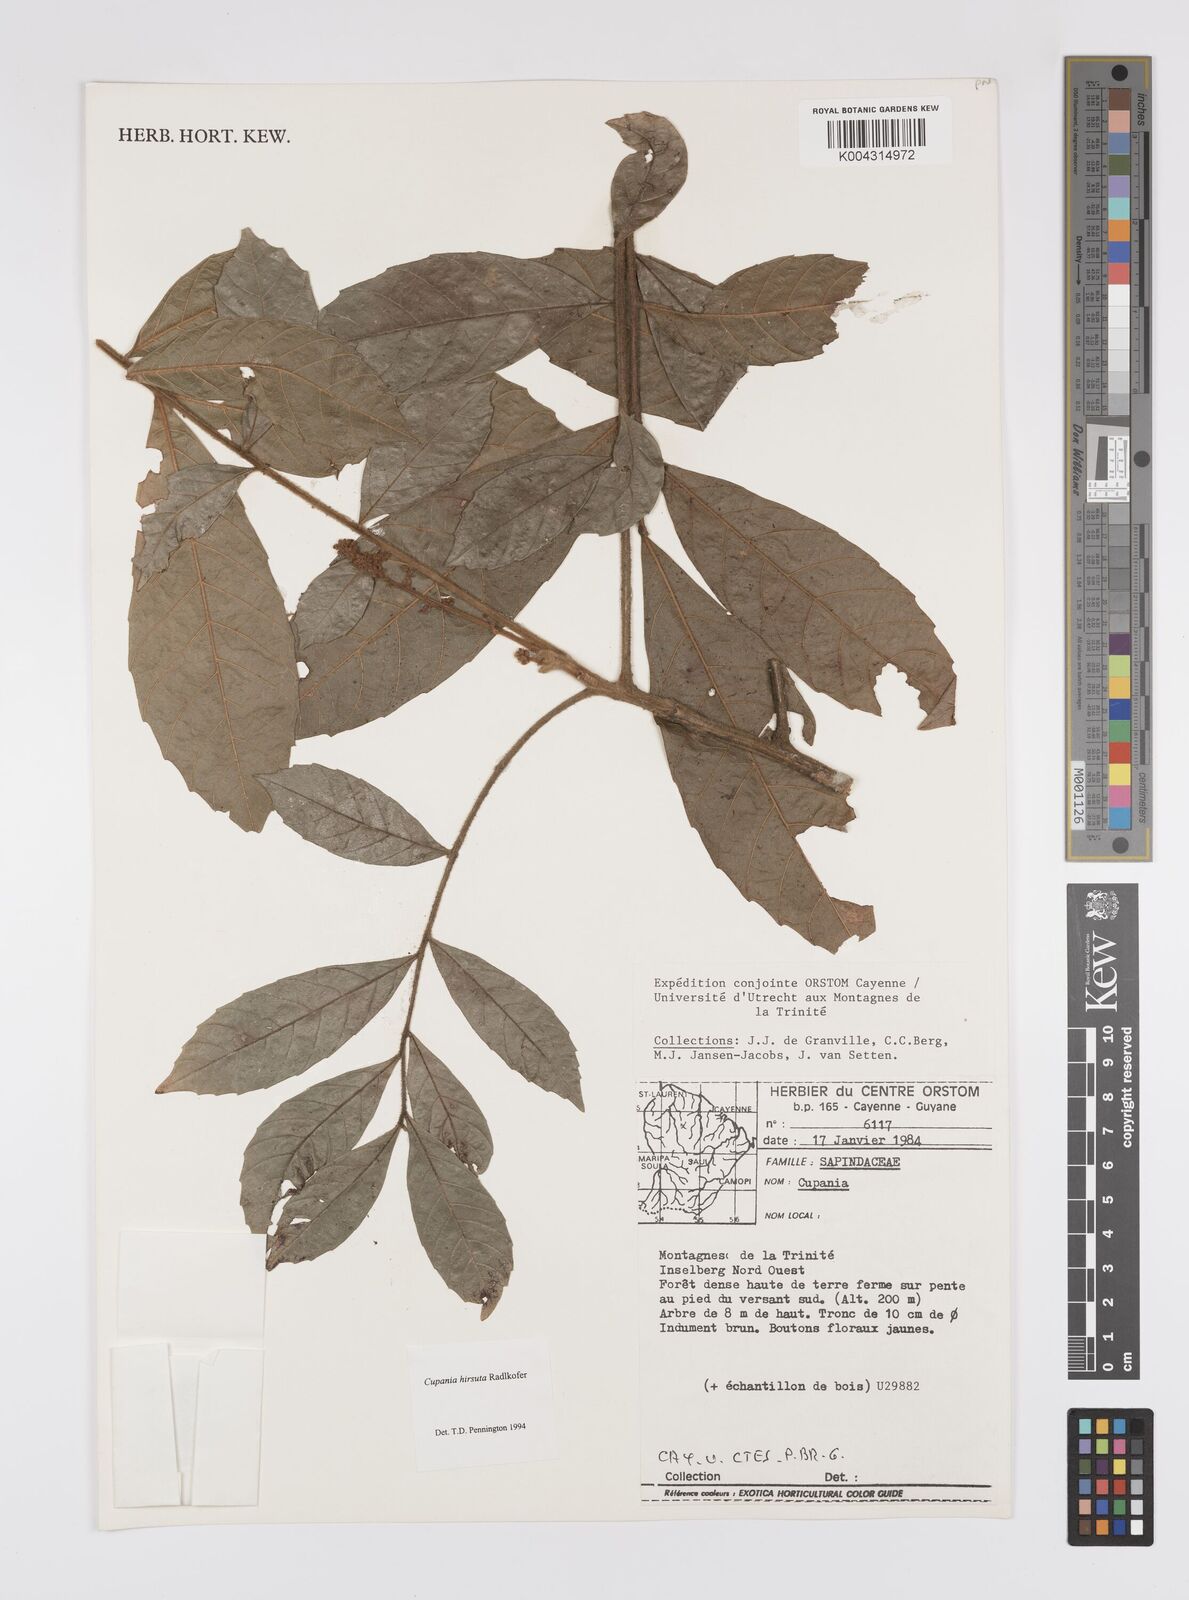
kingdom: Plantae
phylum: Tracheophyta
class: Magnoliopsida
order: Sapindales
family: Sapindaceae
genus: Cupania
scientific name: Cupania hirsuta
